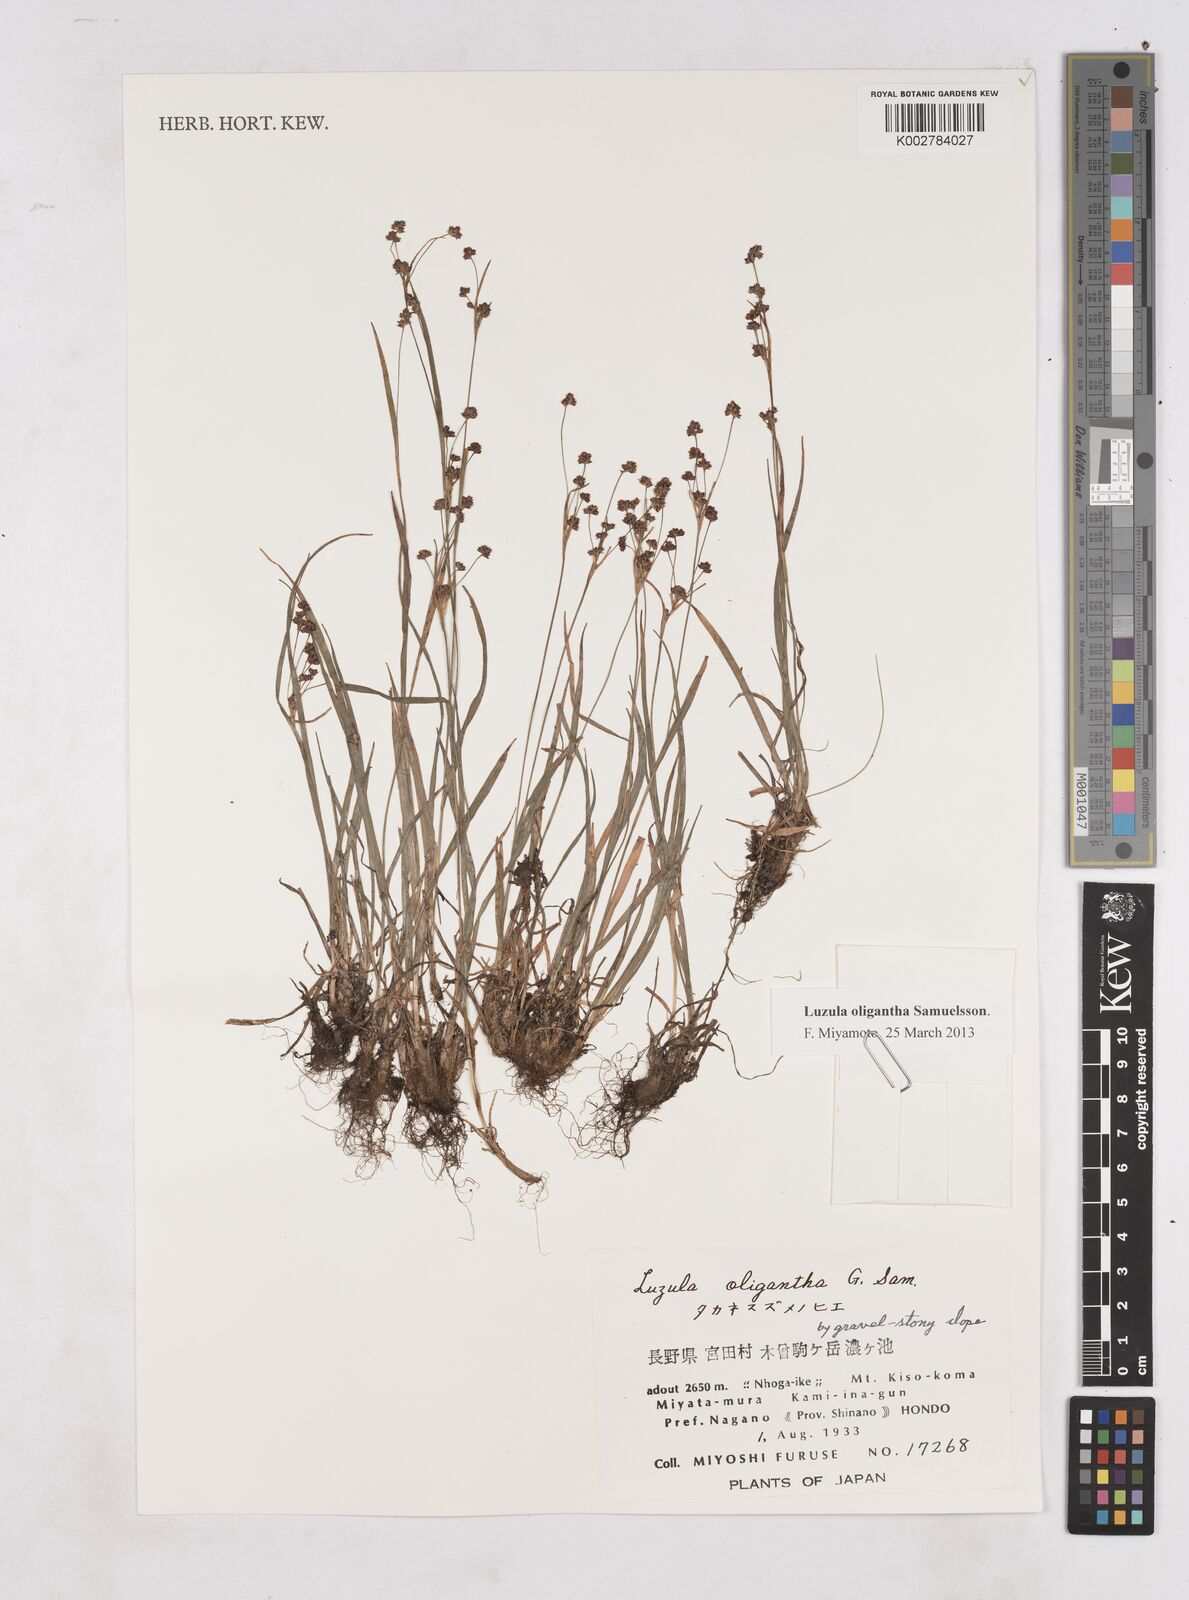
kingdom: Plantae
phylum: Tracheophyta
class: Liliopsida
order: Poales
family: Juncaceae
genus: Luzula
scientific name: Luzula oligantha
